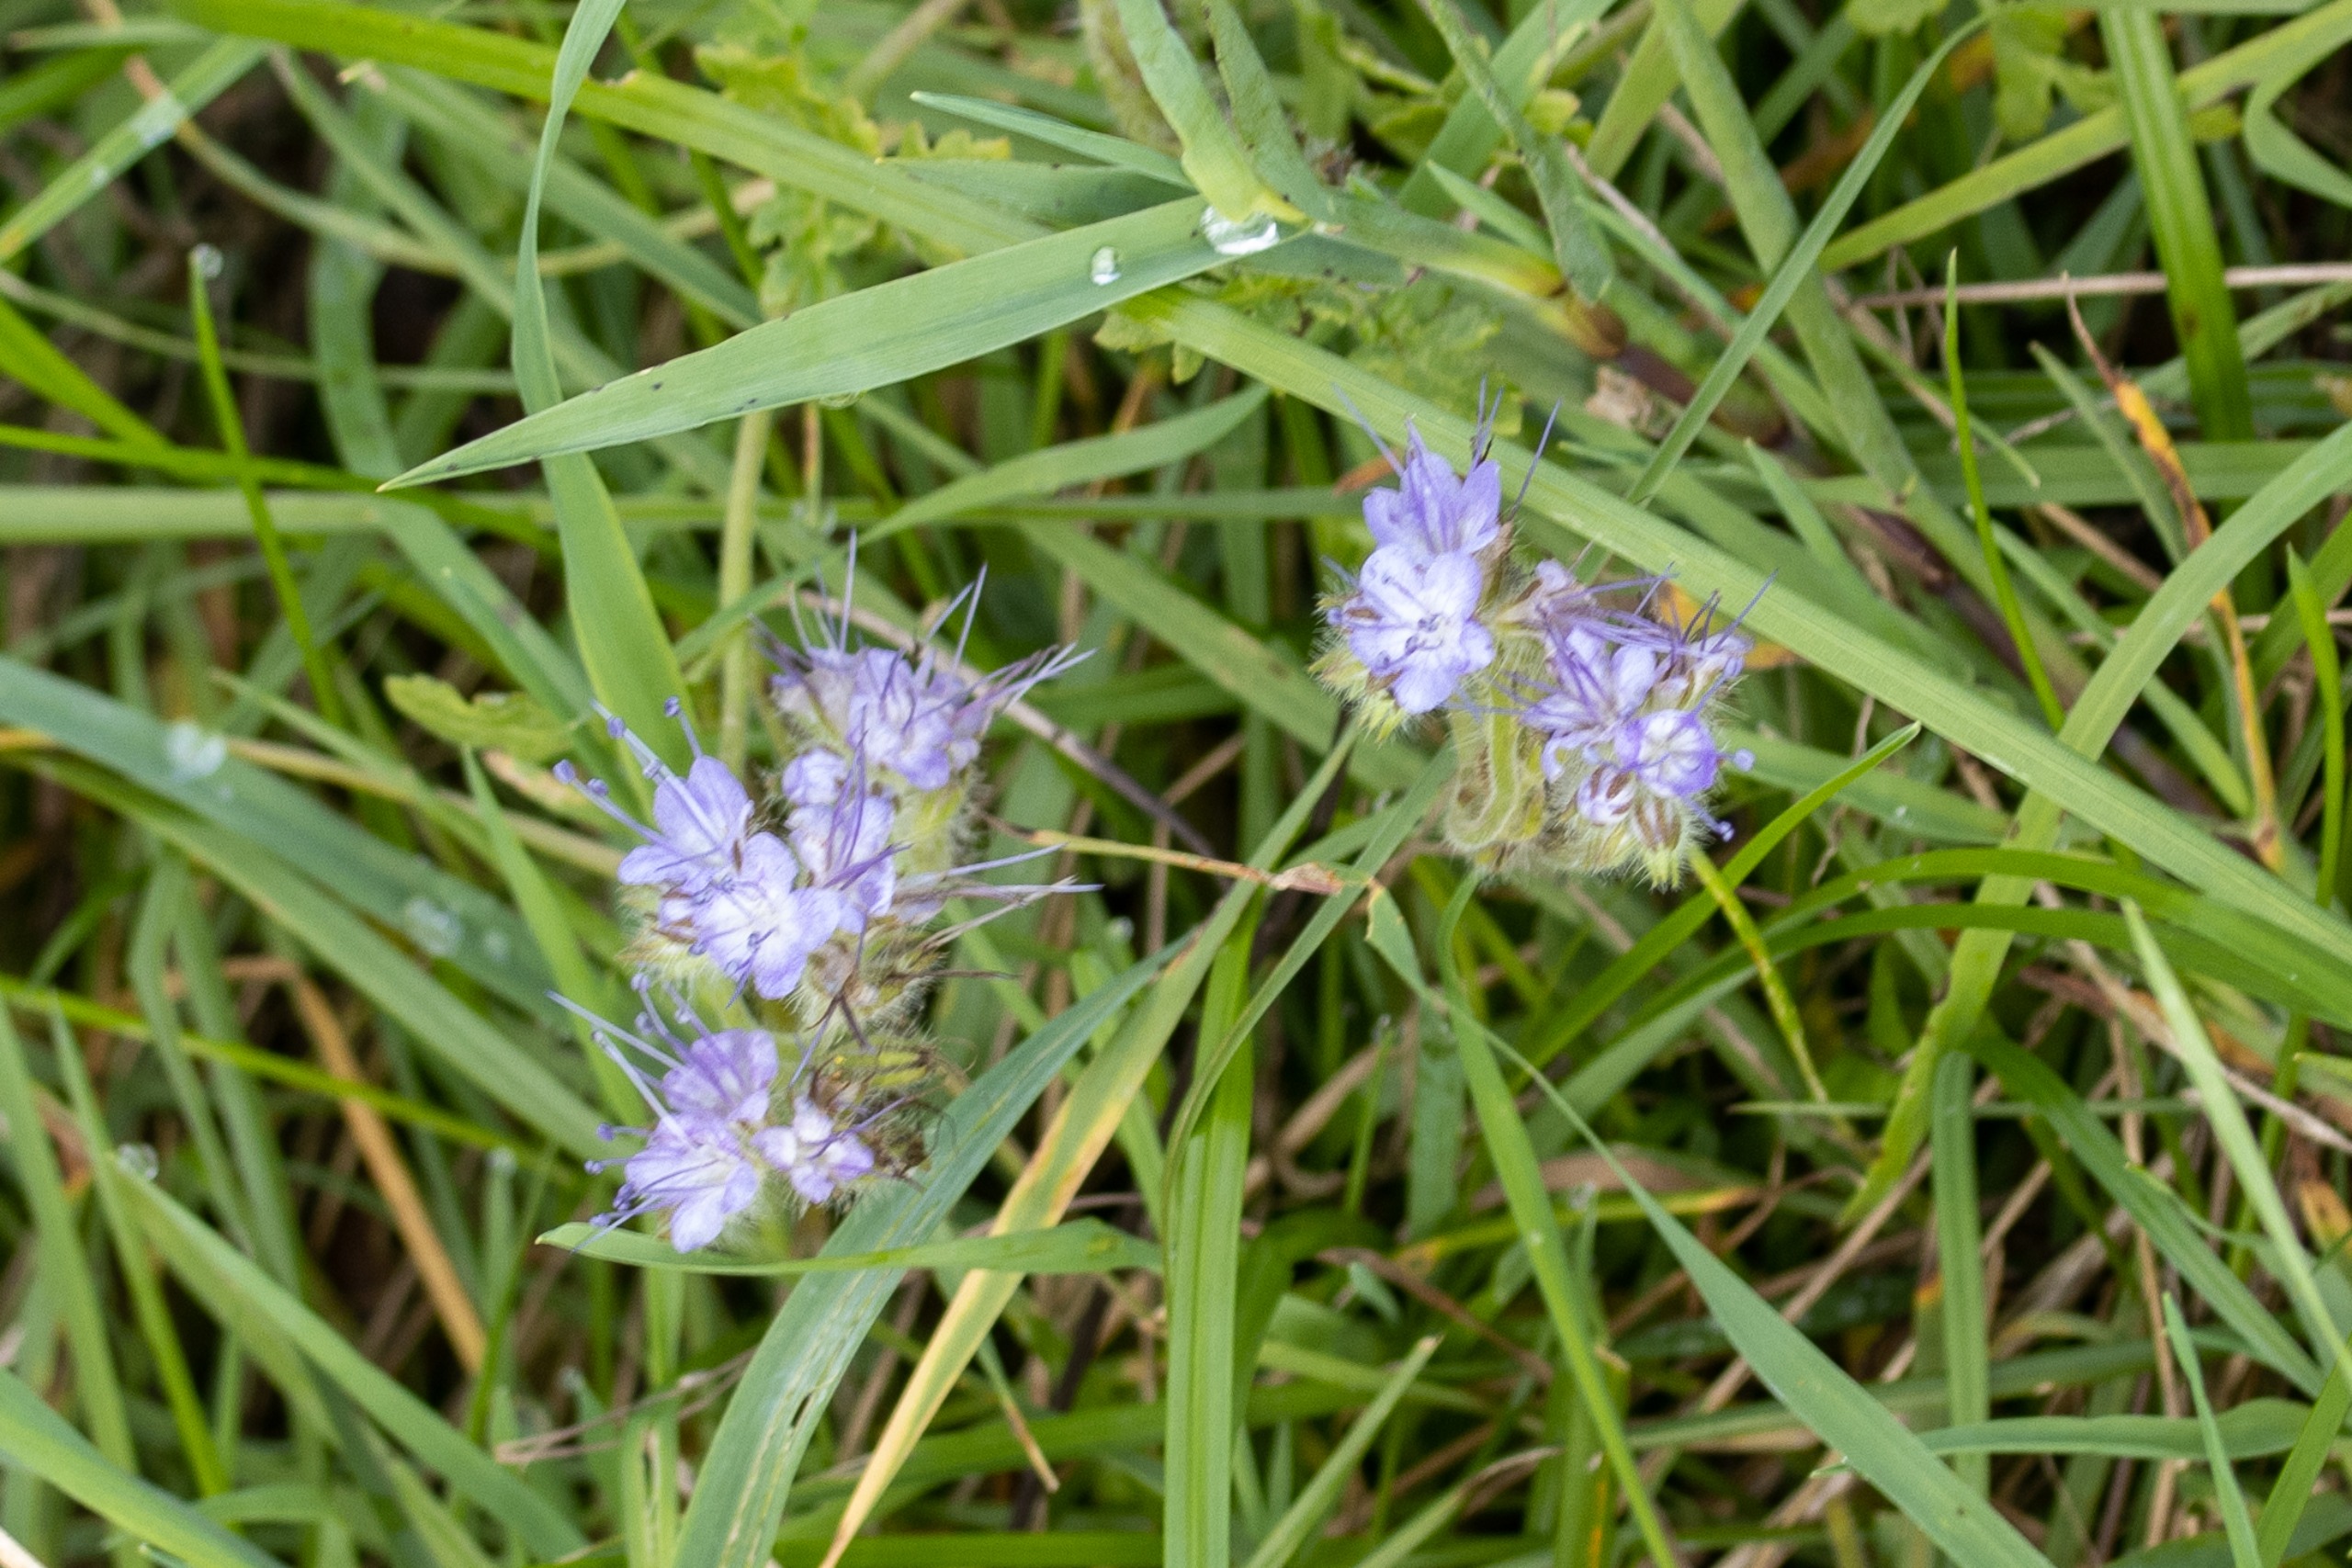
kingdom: Plantae
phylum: Tracheophyta
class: Magnoliopsida
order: Boraginales
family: Hydrophyllaceae
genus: Phacelia
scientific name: Phacelia tanacetifolia
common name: Honningurt
